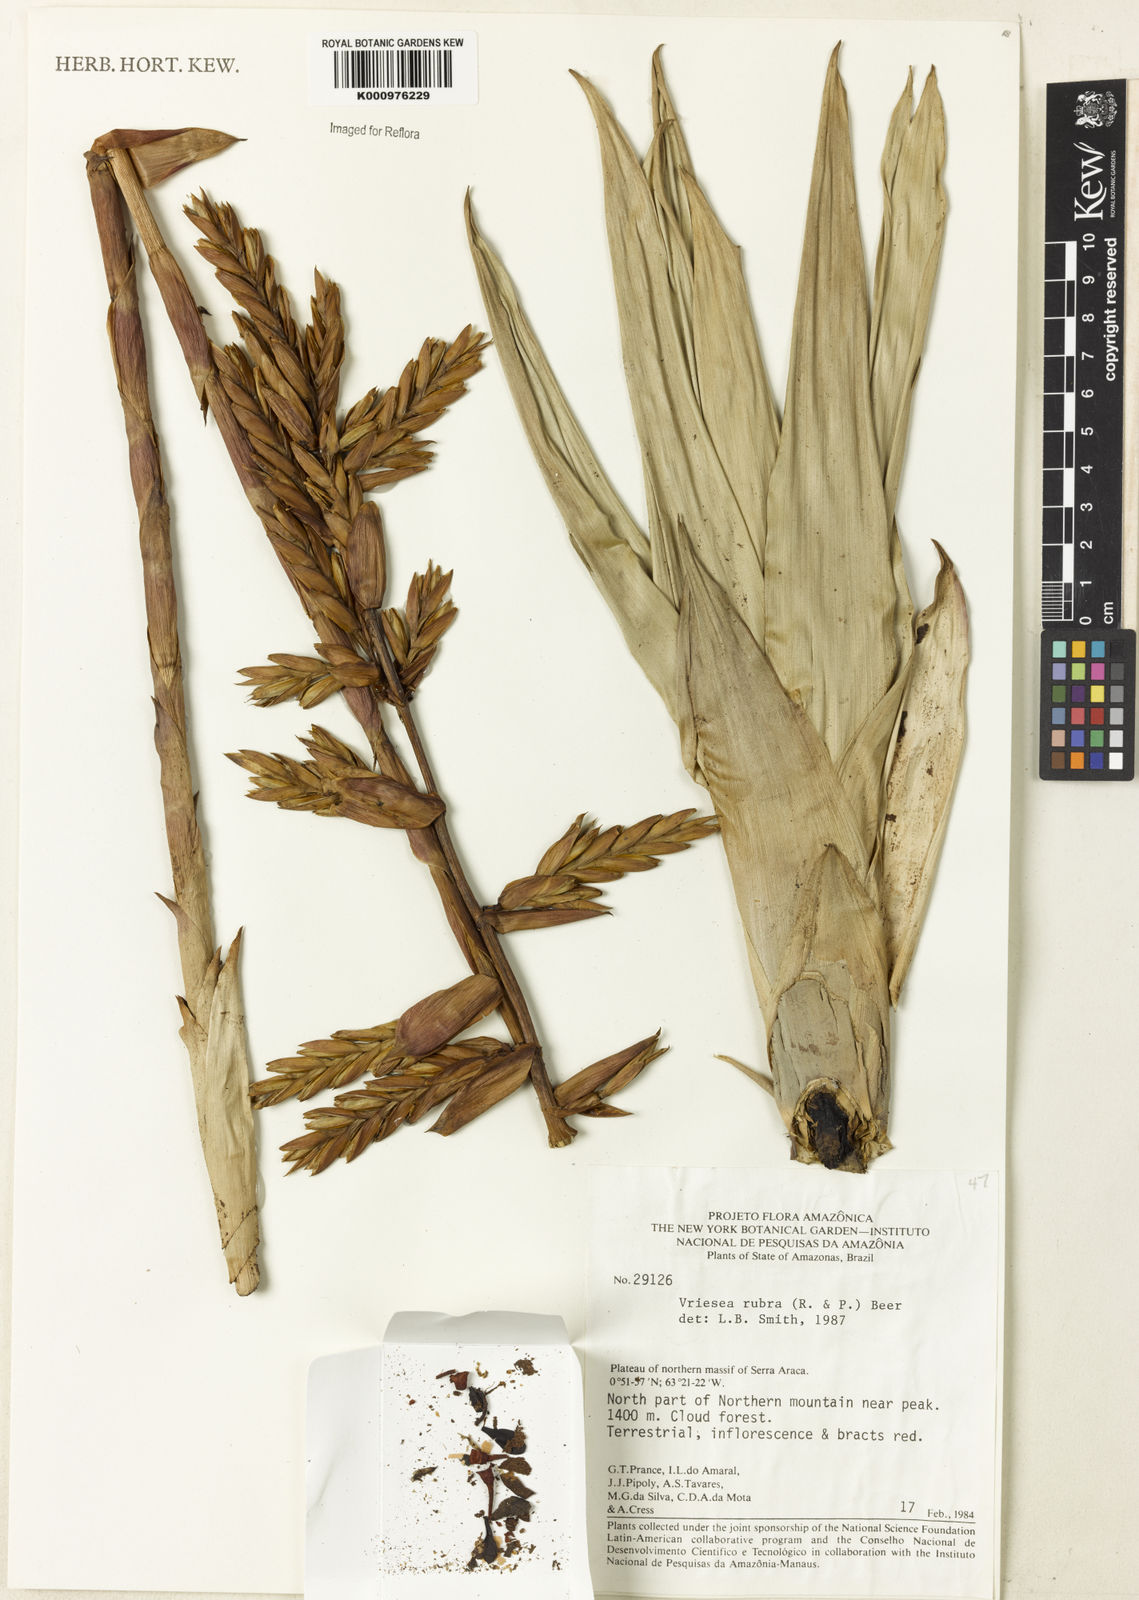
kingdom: Plantae
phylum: Tracheophyta
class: Liliopsida
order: Poales
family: Bromeliaceae
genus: Vriesea
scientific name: Vriesea rubra
